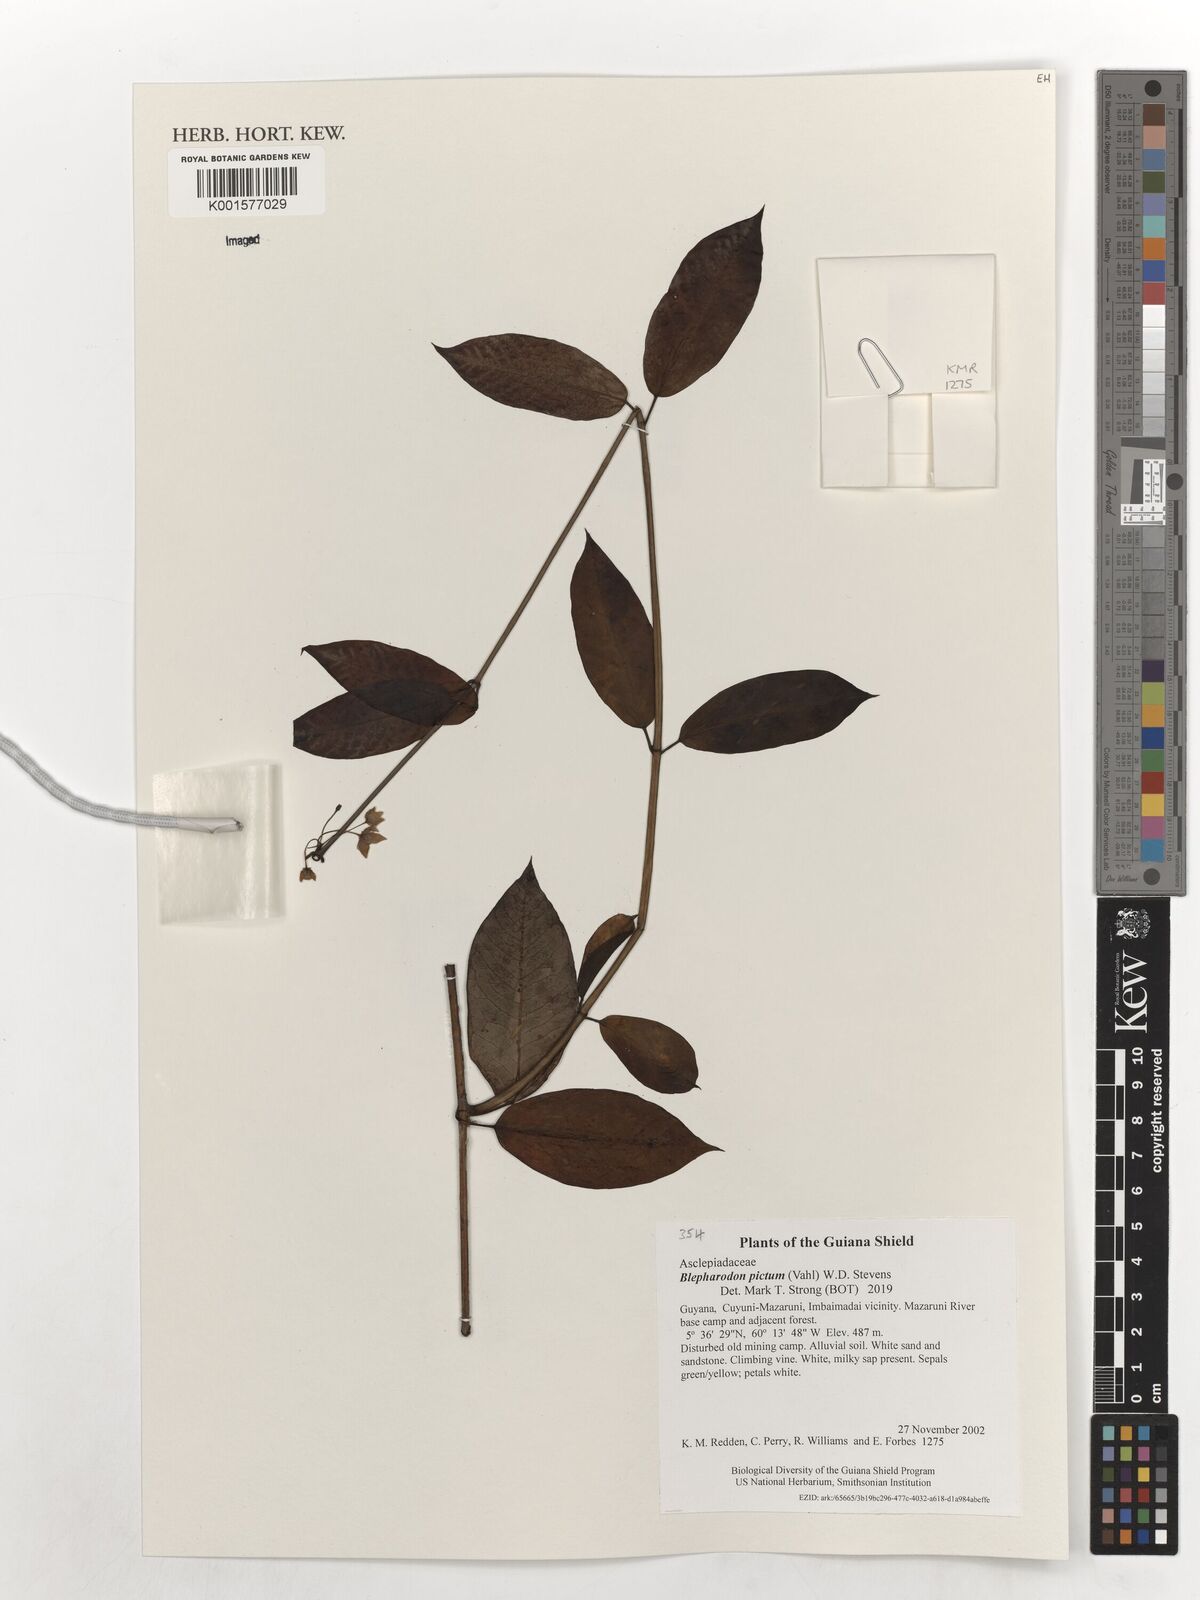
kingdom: Plantae
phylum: Tracheophyta
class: Magnoliopsida
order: Gentianales
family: Apocynaceae
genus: Blepharodon
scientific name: Blepharodon pictum
